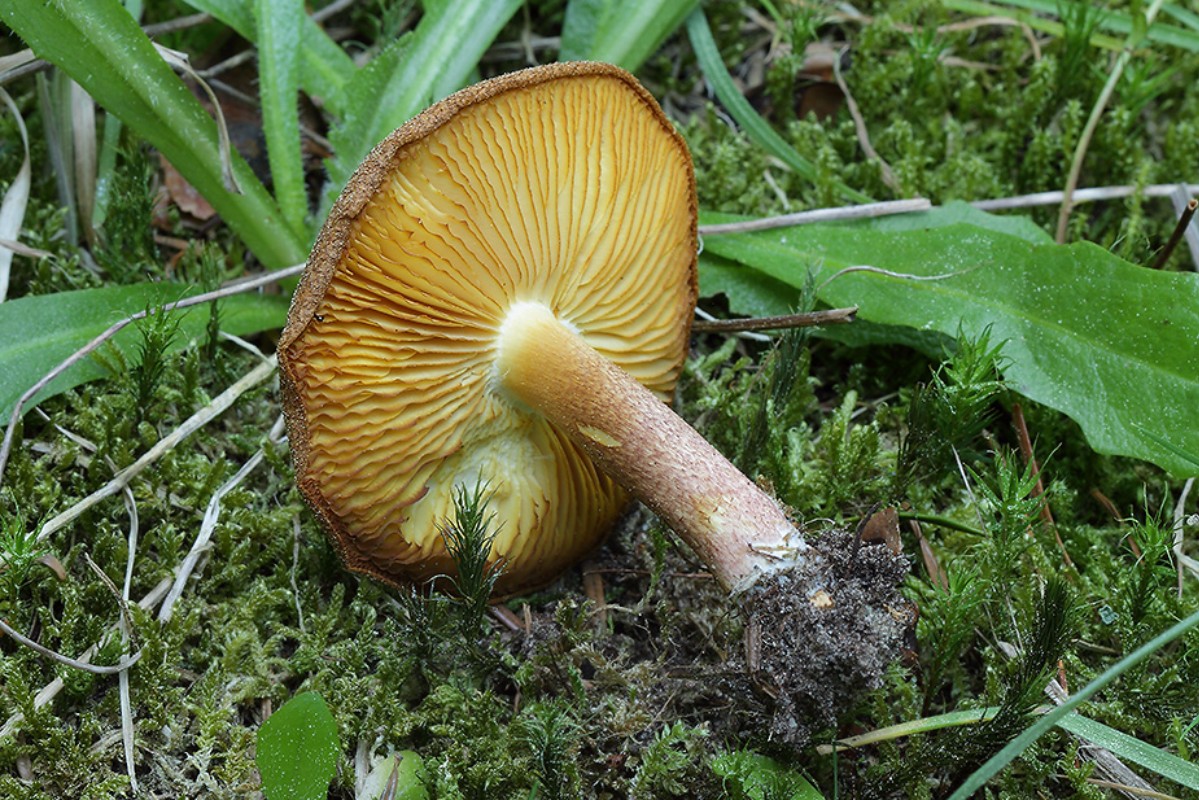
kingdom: Fungi
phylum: Basidiomycota
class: Agaricomycetes
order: Agaricales
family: Tricholomataceae
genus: Tricholomopsis
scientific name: Tricholomopsis rutilans
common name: purpur-væbnerhat
